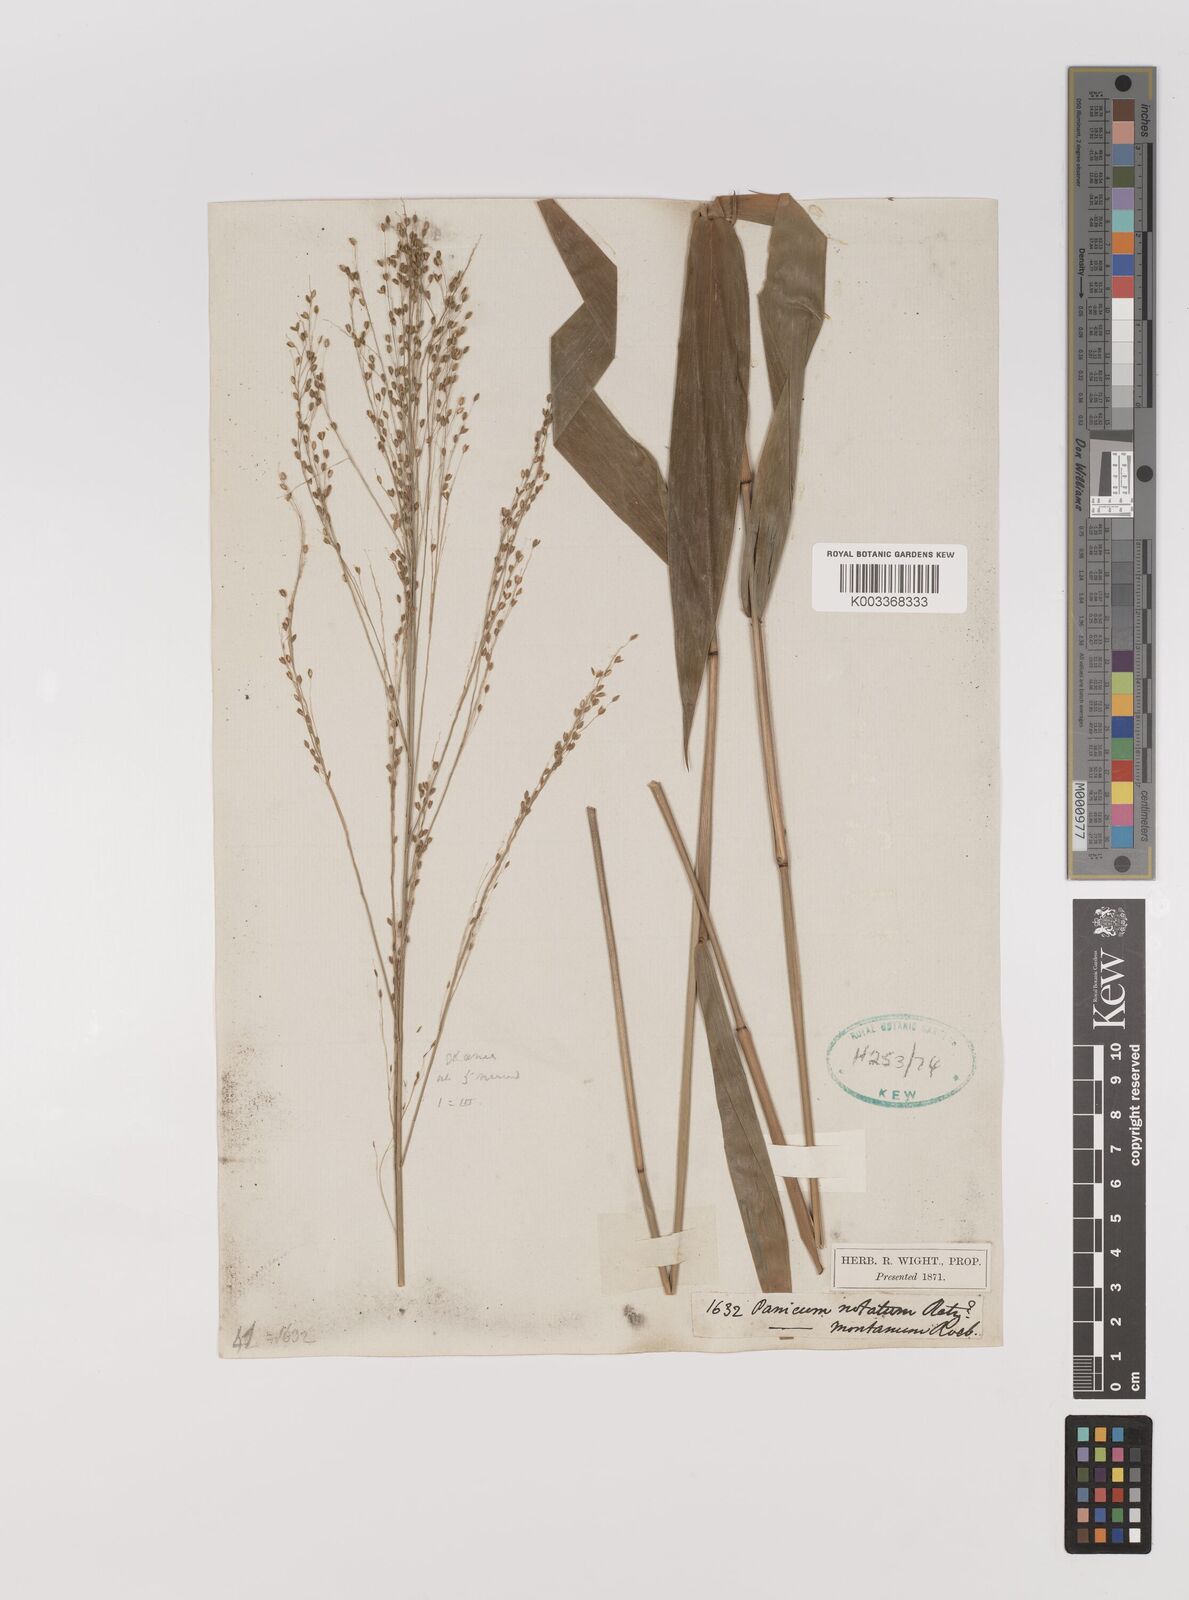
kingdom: Plantae
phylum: Tracheophyta
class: Liliopsida
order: Poales
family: Poaceae
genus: Panicum
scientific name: Panicum notatum
